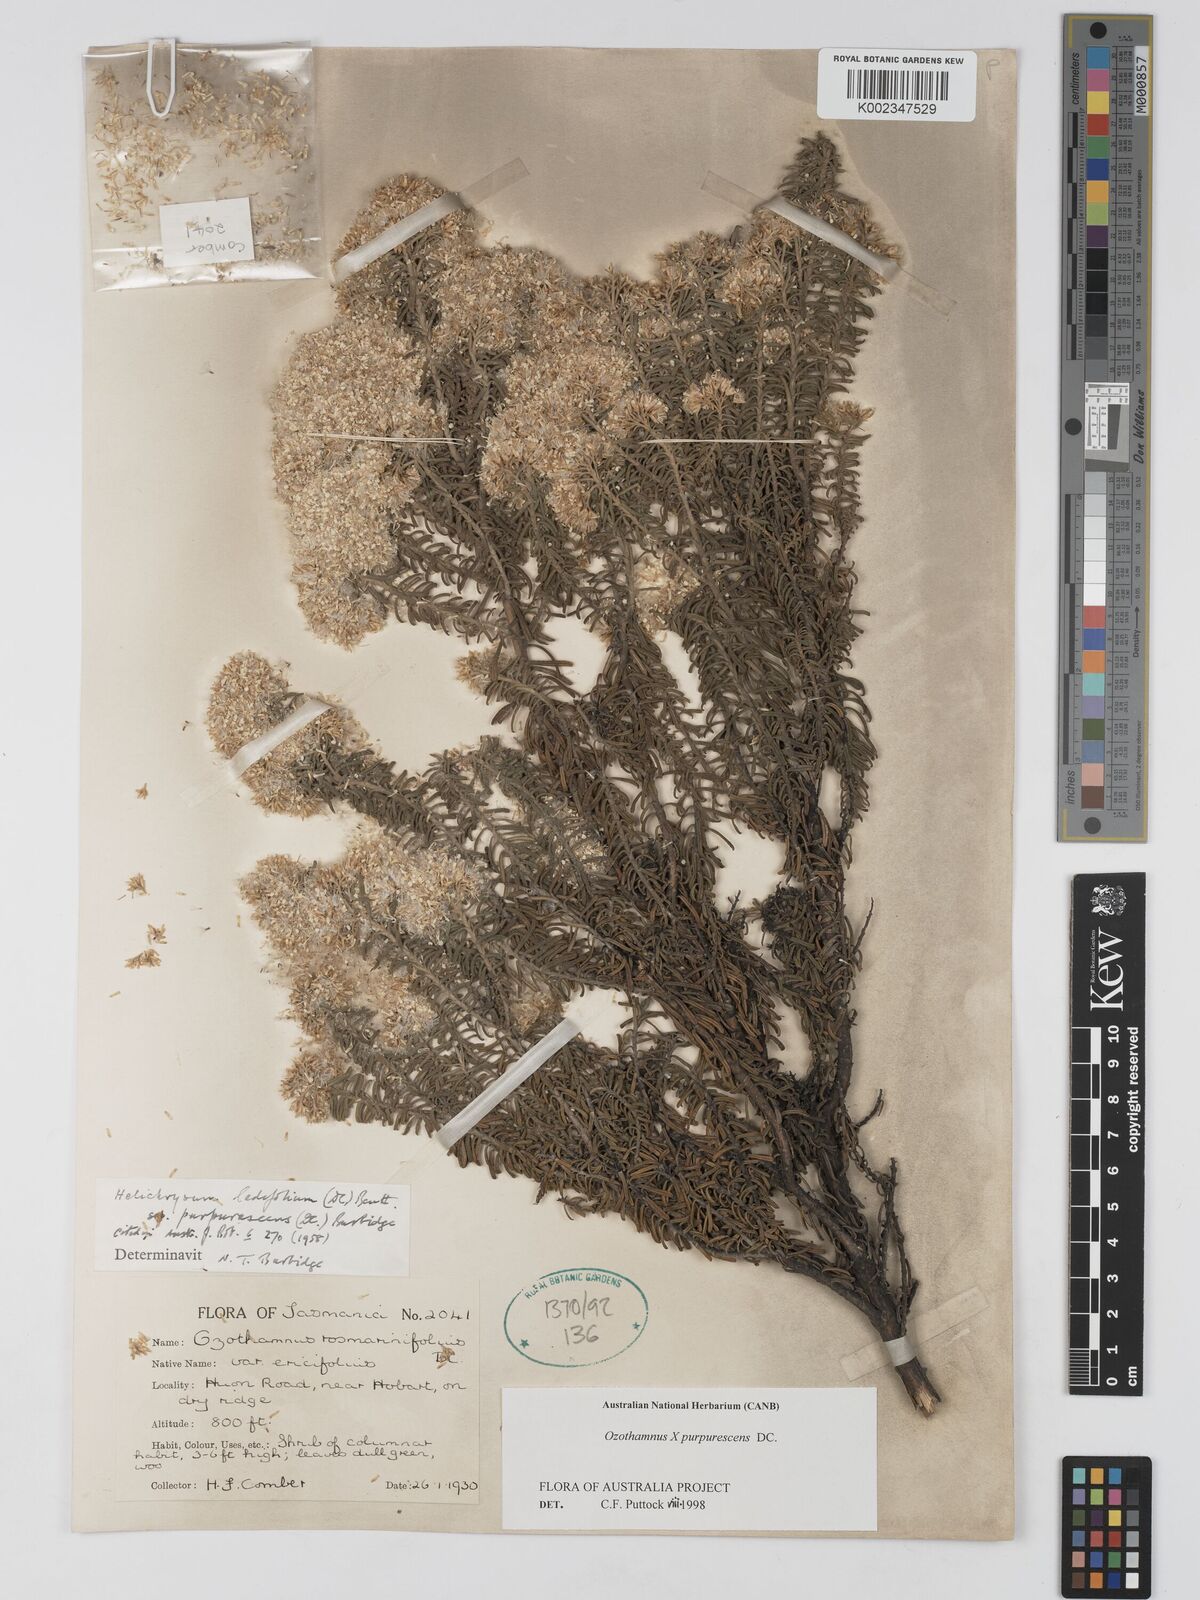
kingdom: Plantae
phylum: Tracheophyta
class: Magnoliopsida
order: Asterales
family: Asteraceae
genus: Ozothamnus
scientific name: Ozothamnus purpurascens
